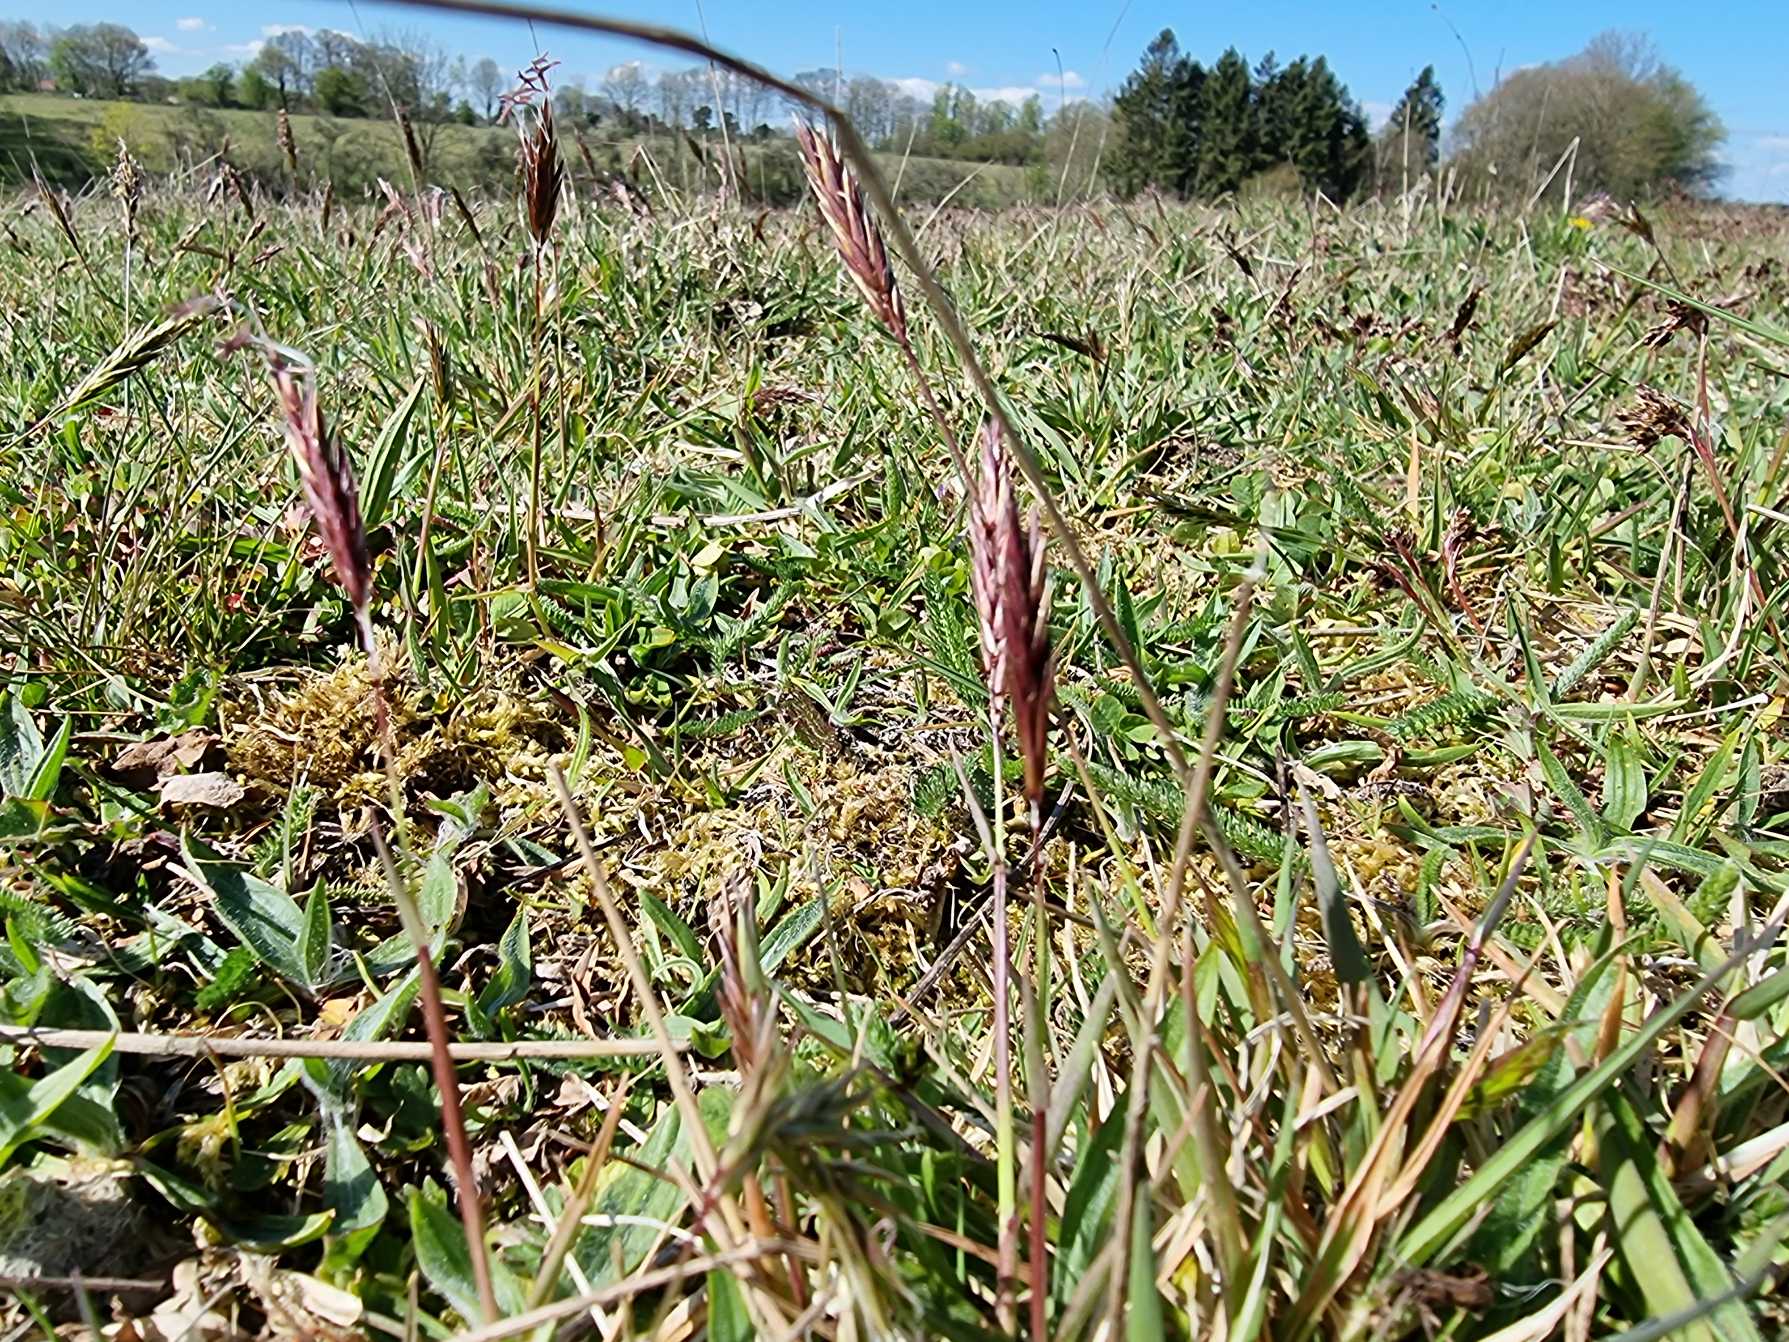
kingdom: Plantae
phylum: Tracheophyta
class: Liliopsida
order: Poales
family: Poaceae
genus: Anthoxanthum
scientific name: Anthoxanthum odoratum
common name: Vellugtende gulaks
